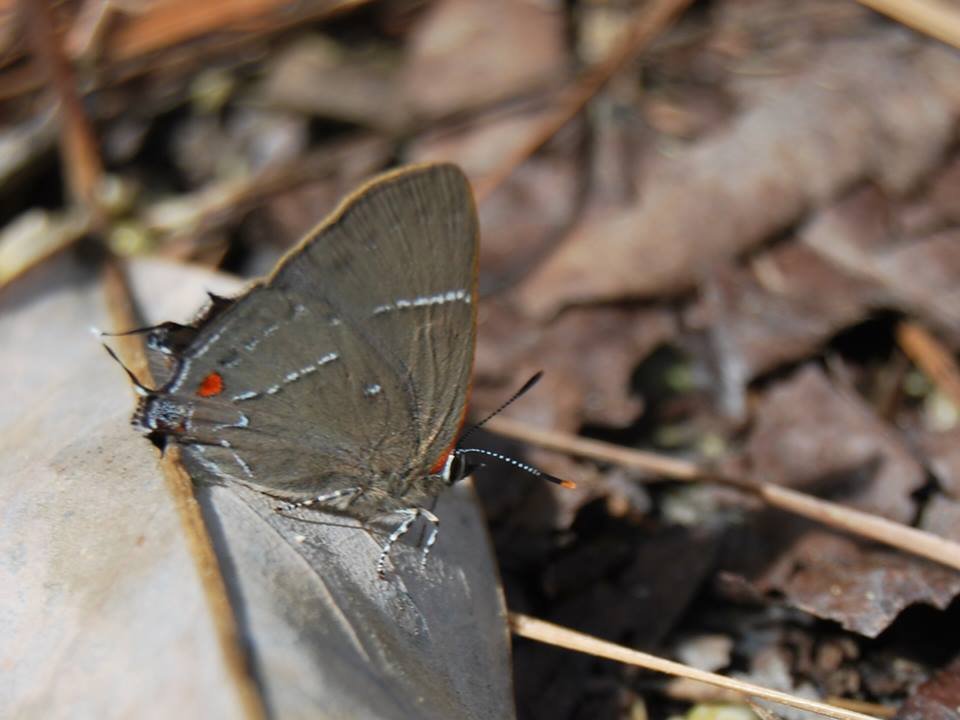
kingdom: Animalia
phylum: Arthropoda
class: Insecta
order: Lepidoptera
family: Lycaenidae
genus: Parrhasius
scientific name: Parrhasius m-album
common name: White-m Hairstreak
